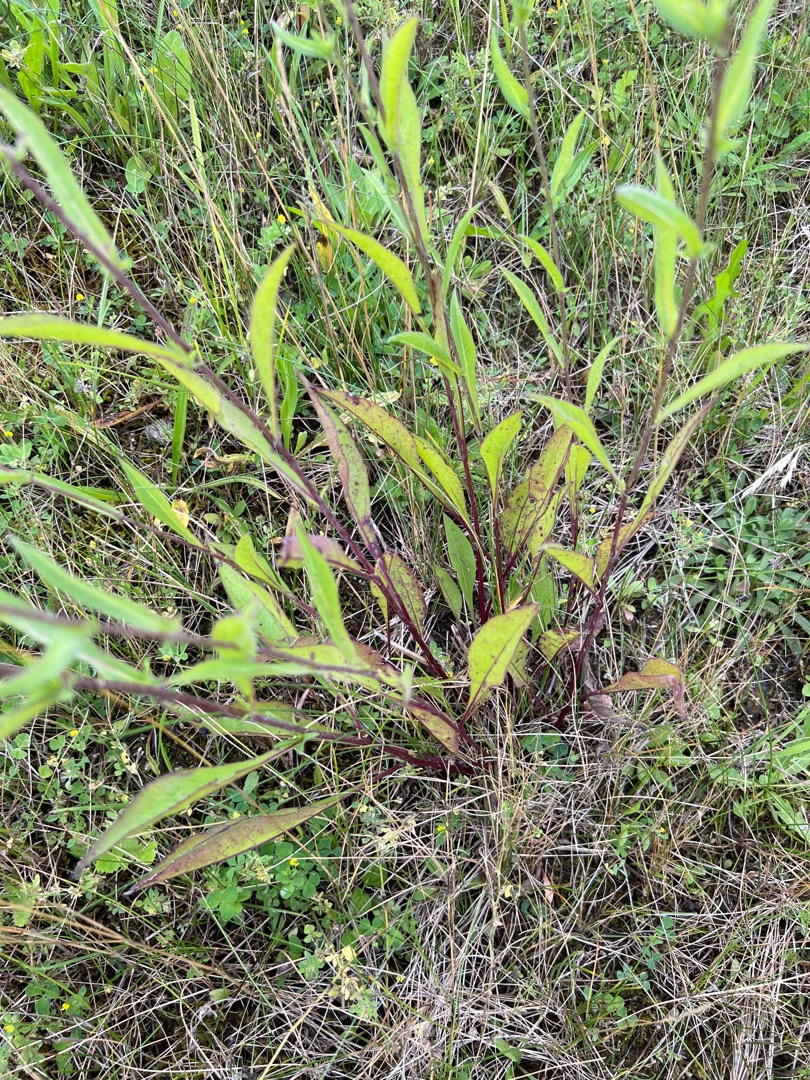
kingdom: Plantae
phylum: Tracheophyta
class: Magnoliopsida
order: Asterales
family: Asteraceae
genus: Centaurea
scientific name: Centaurea debeauxii
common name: Lundknopurt
